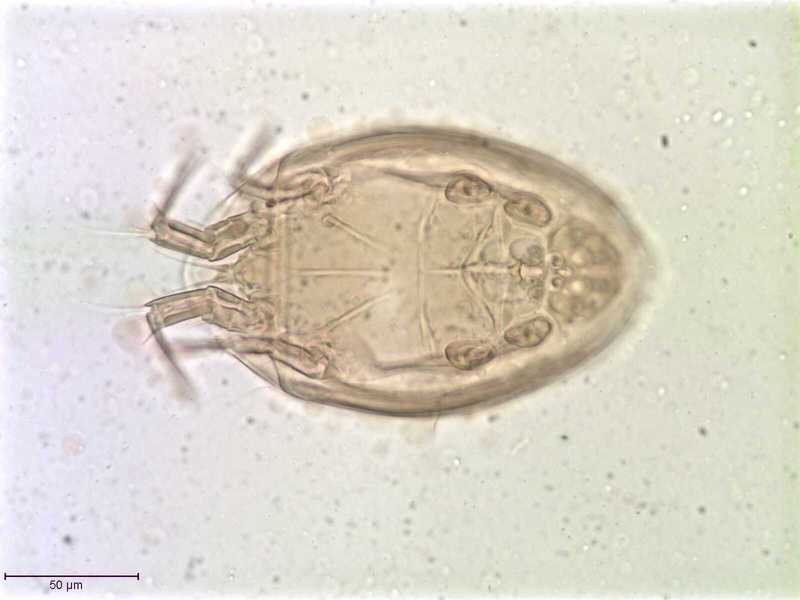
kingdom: Animalia
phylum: Arthropoda
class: Arachnida
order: Sarcoptiformes
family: Histiostomatidae
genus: Histiostoma
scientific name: Histiostoma prophthalmi
